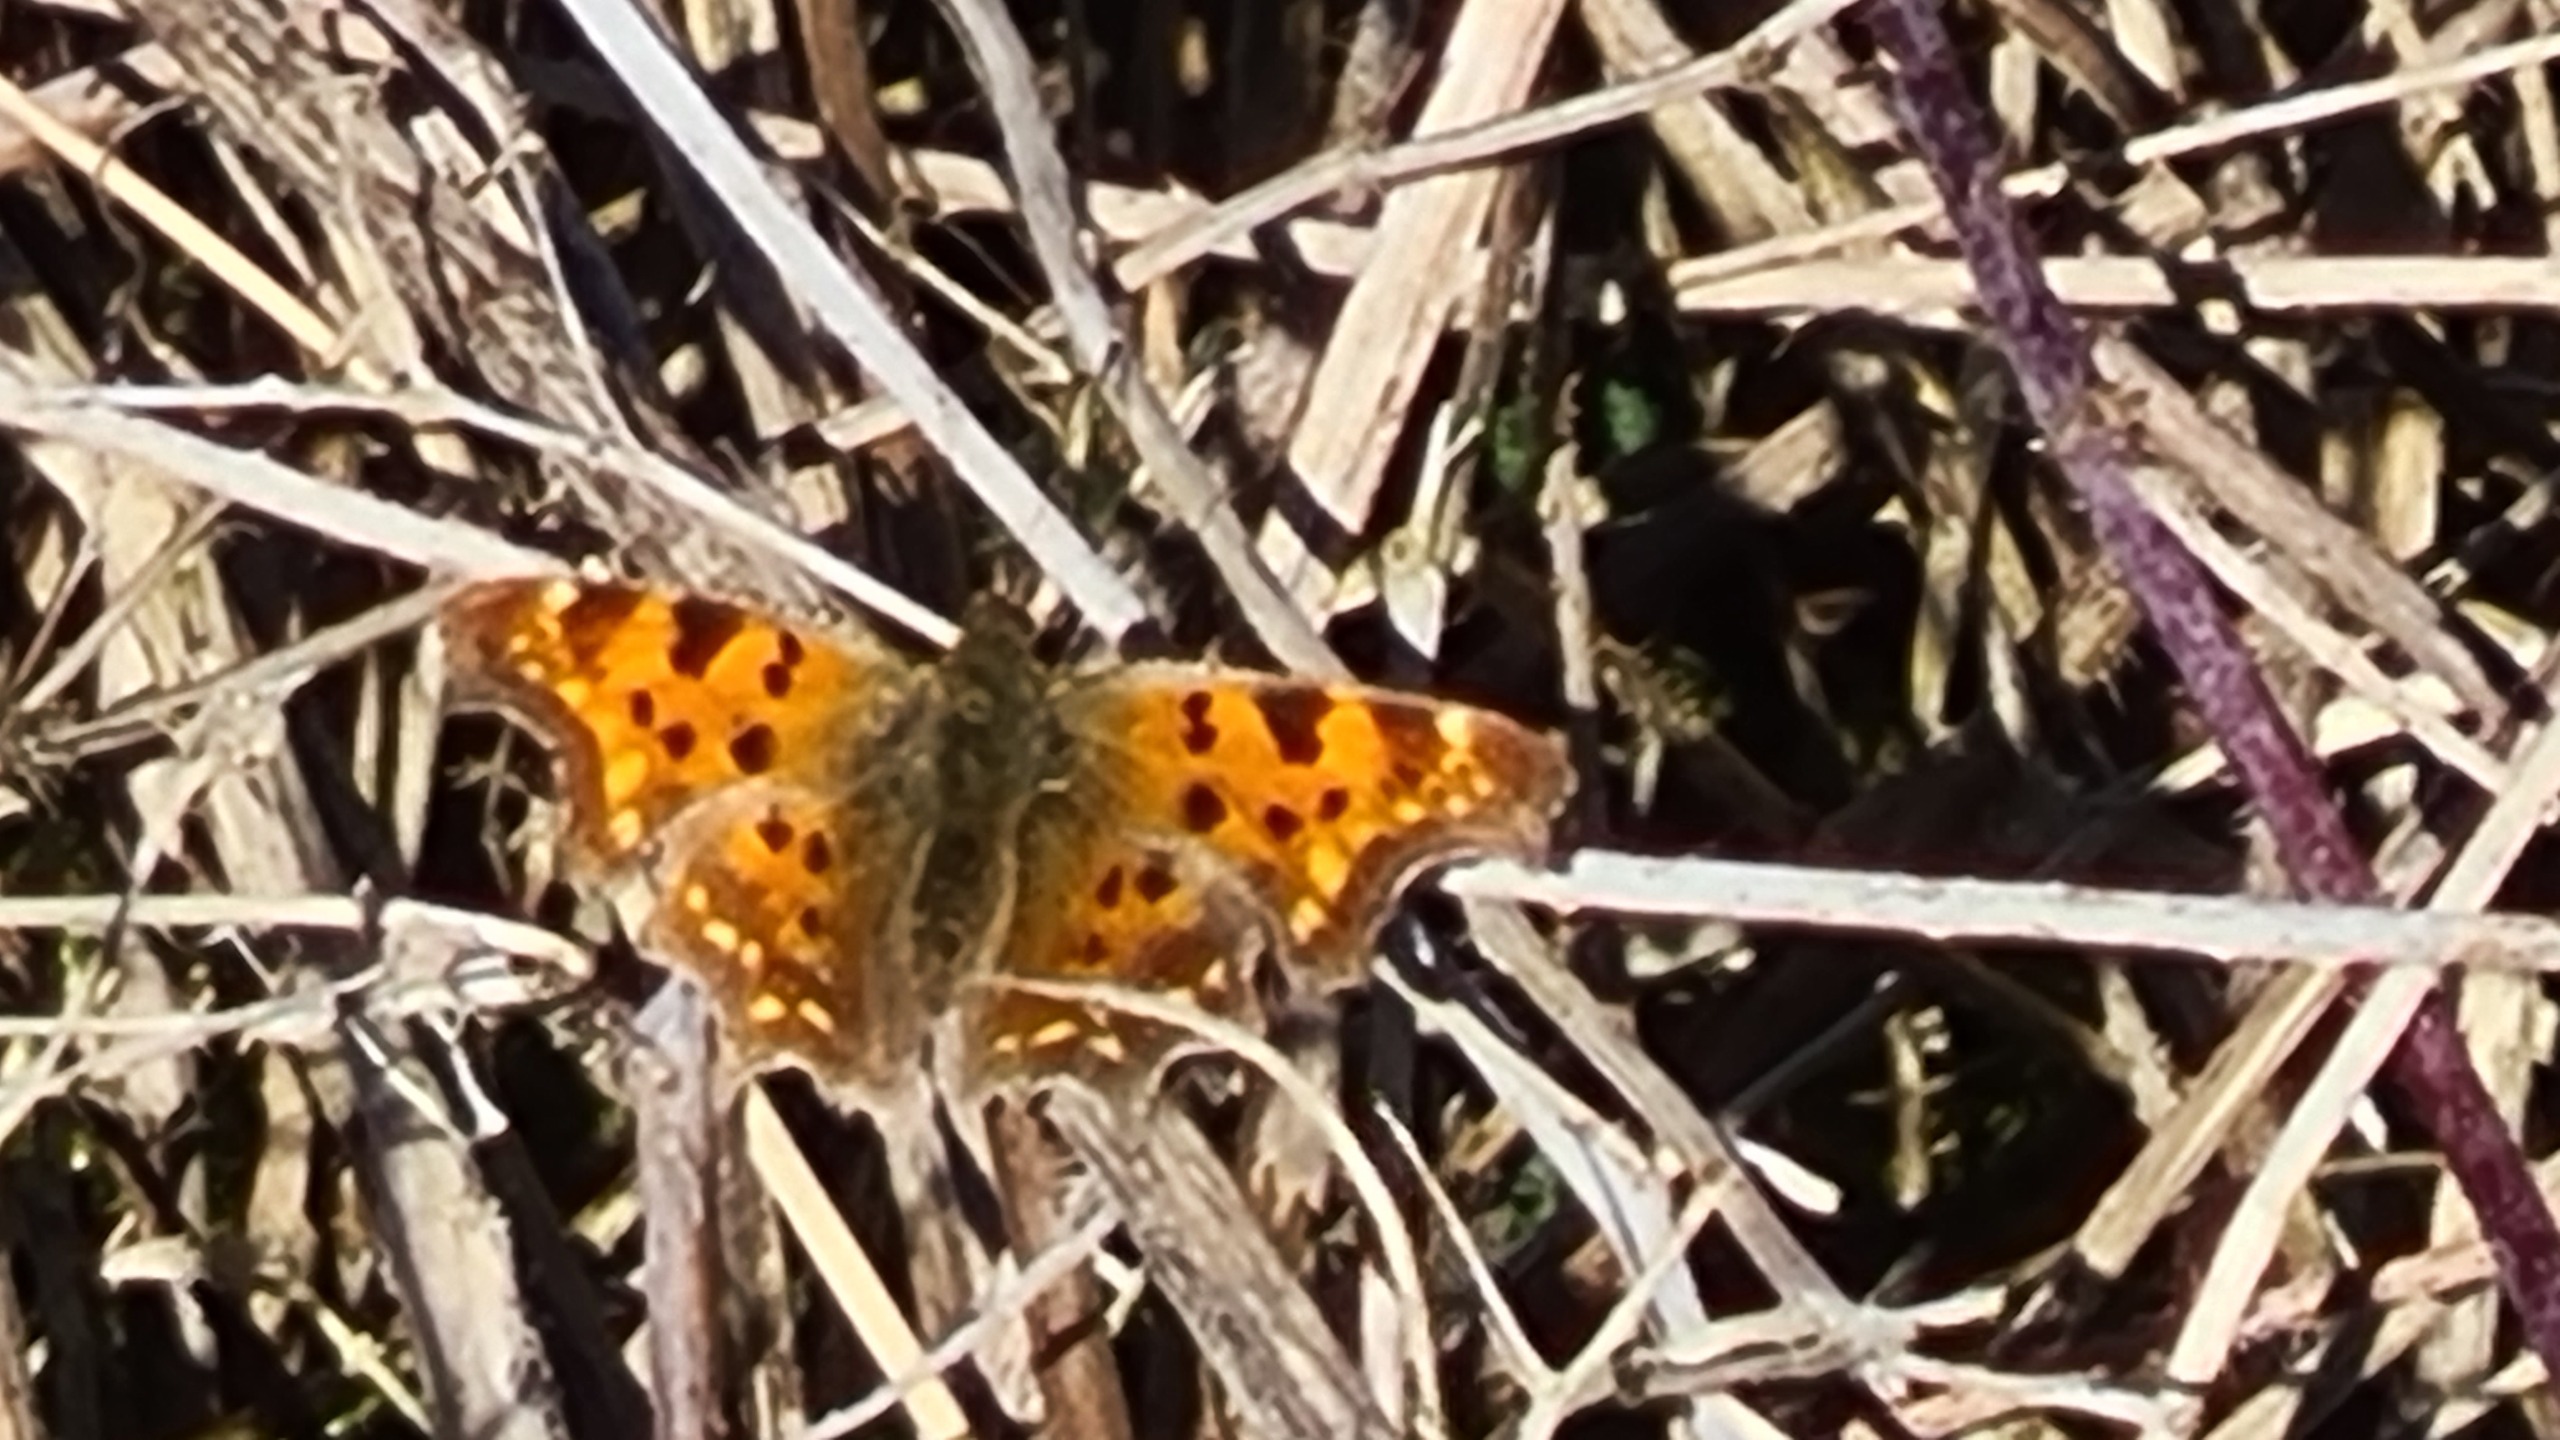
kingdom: Animalia
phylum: Arthropoda
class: Insecta
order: Lepidoptera
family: Nymphalidae
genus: Polygonia
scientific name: Polygonia c-album
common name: Det hvide C
